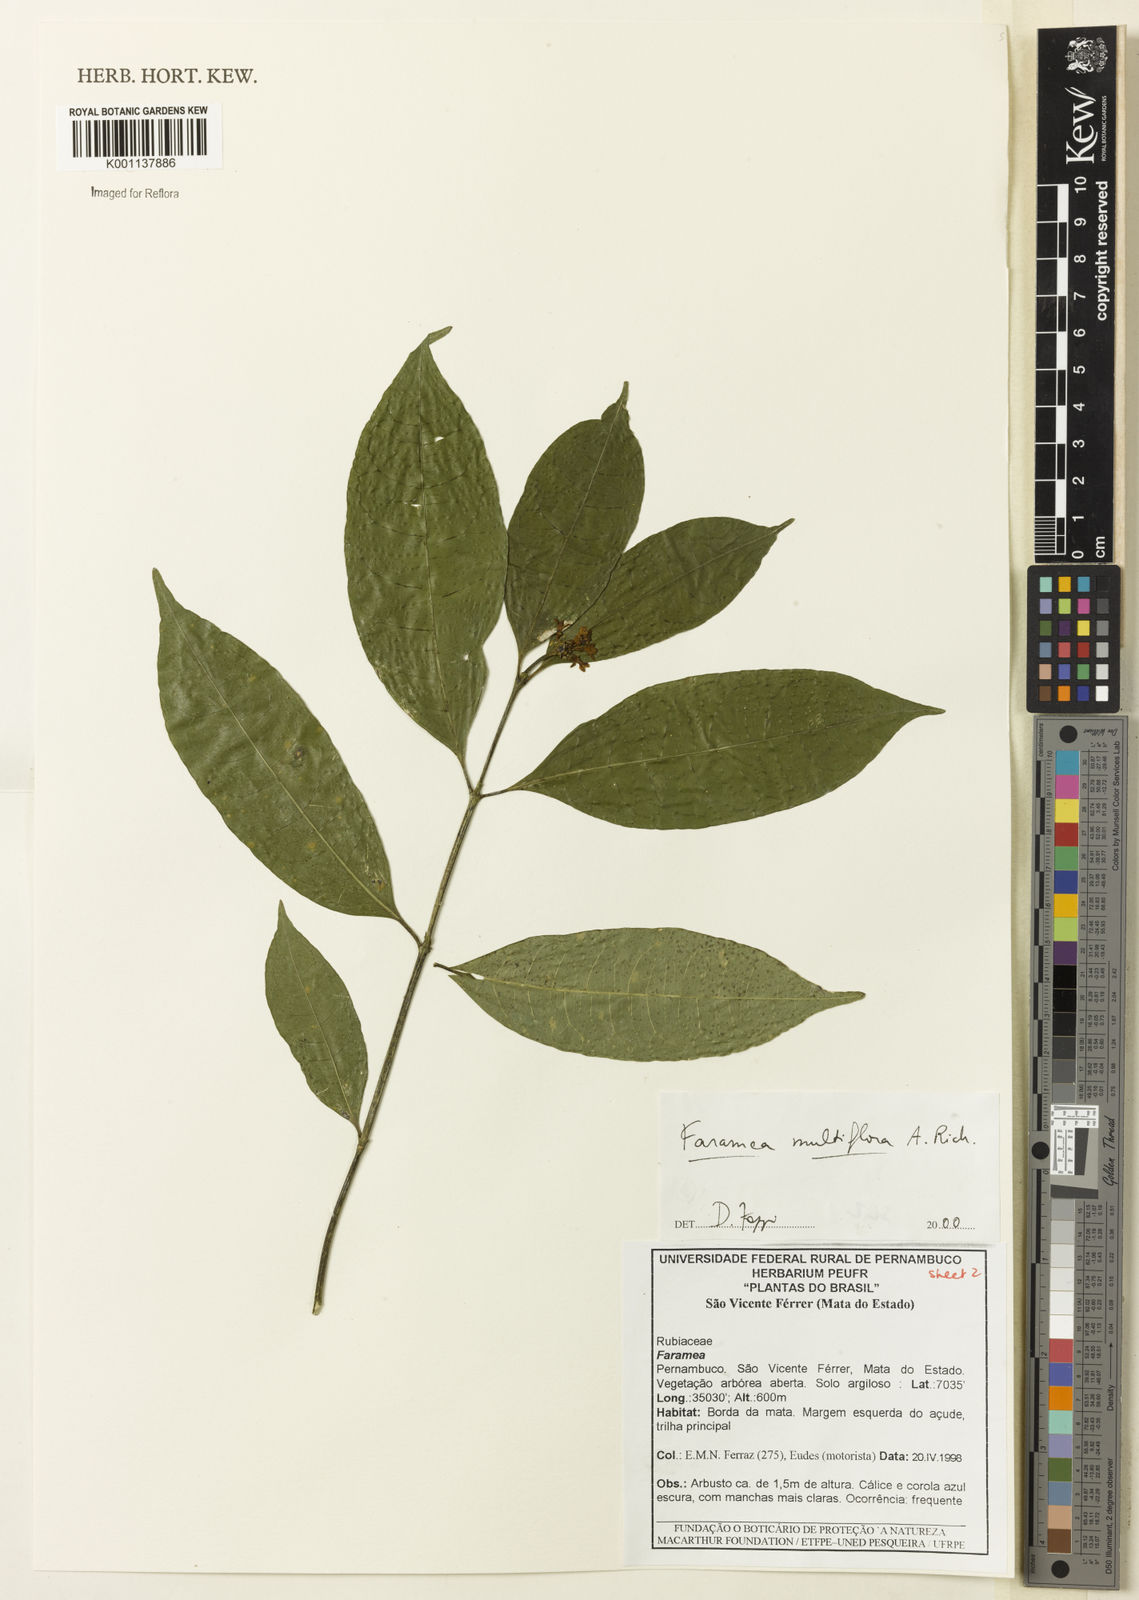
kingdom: Plantae
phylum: Tracheophyta
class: Magnoliopsida
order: Gentianales
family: Rubiaceae
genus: Faramea
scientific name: Faramea multiflora
